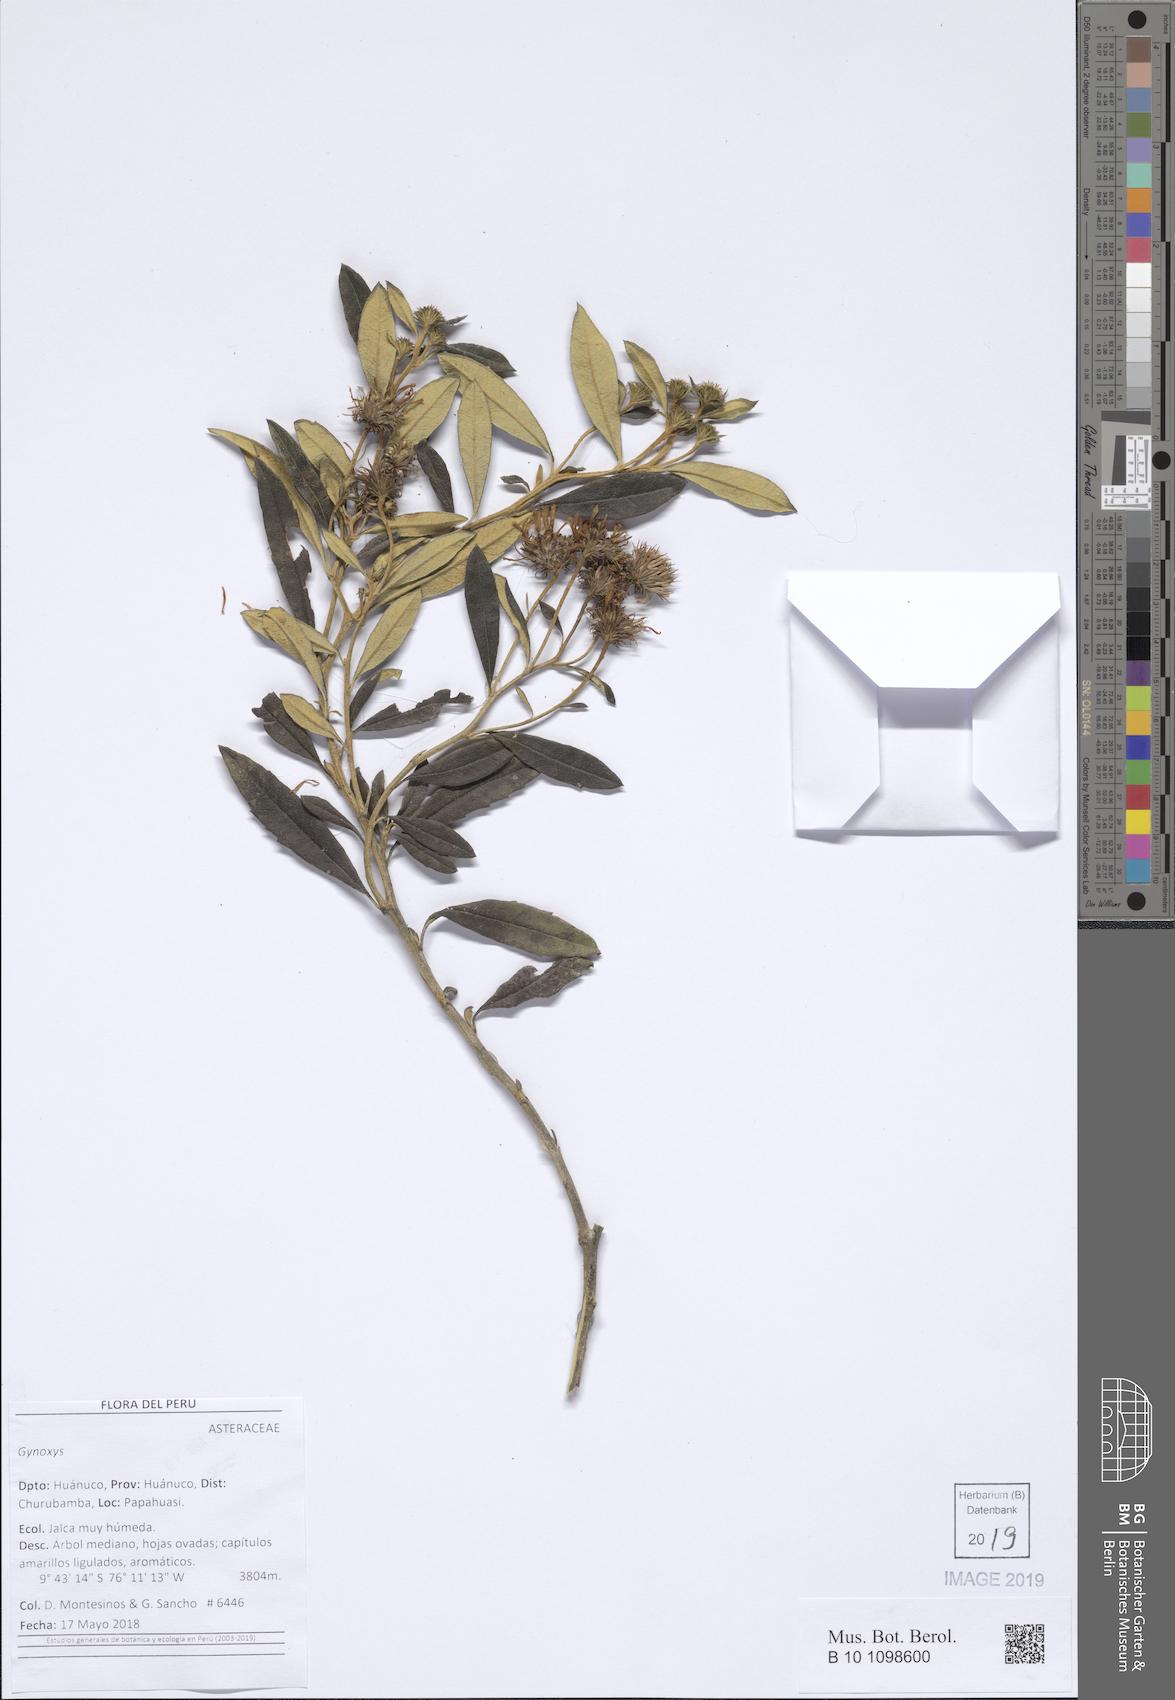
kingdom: Plantae
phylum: Tracheophyta
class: Magnoliopsida
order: Asterales
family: Asteraceae
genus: Gynoxys
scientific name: Gynoxys
